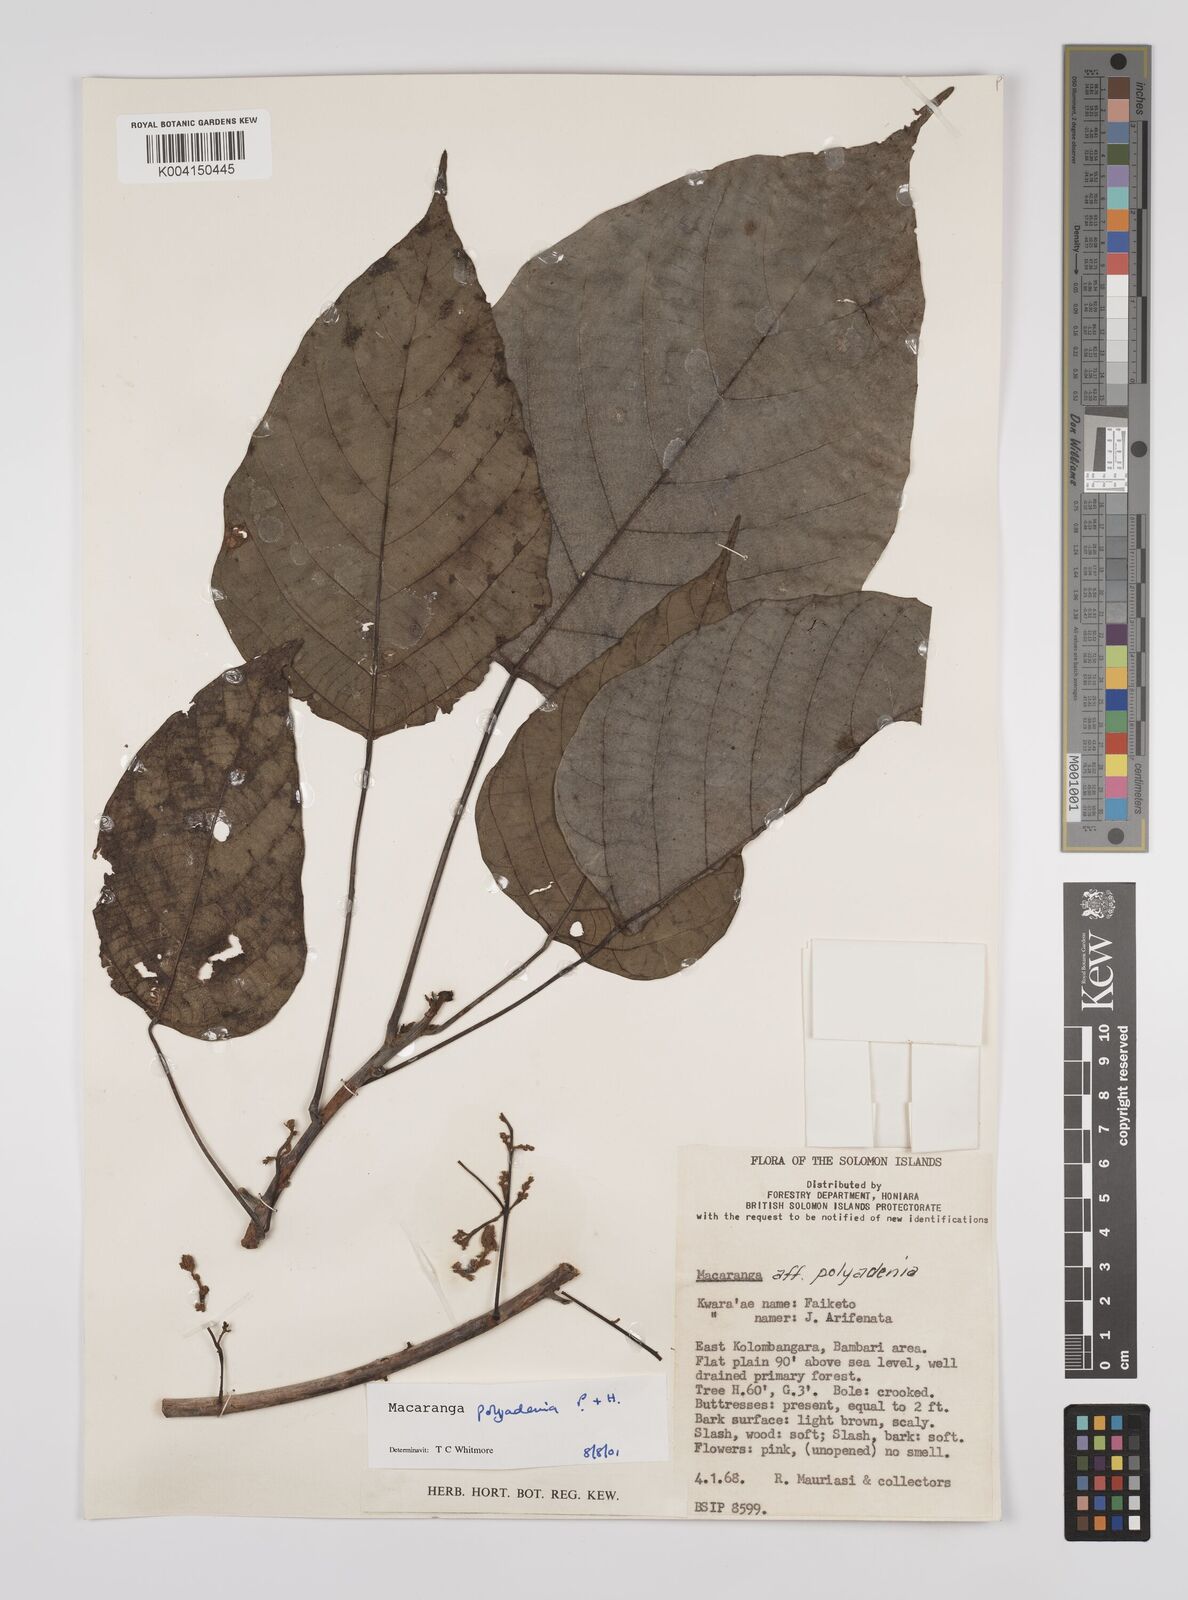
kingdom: Plantae
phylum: Tracheophyta
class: Magnoliopsida
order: Malpighiales
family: Euphorbiaceae
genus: Macaranga
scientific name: Macaranga polyadenia
